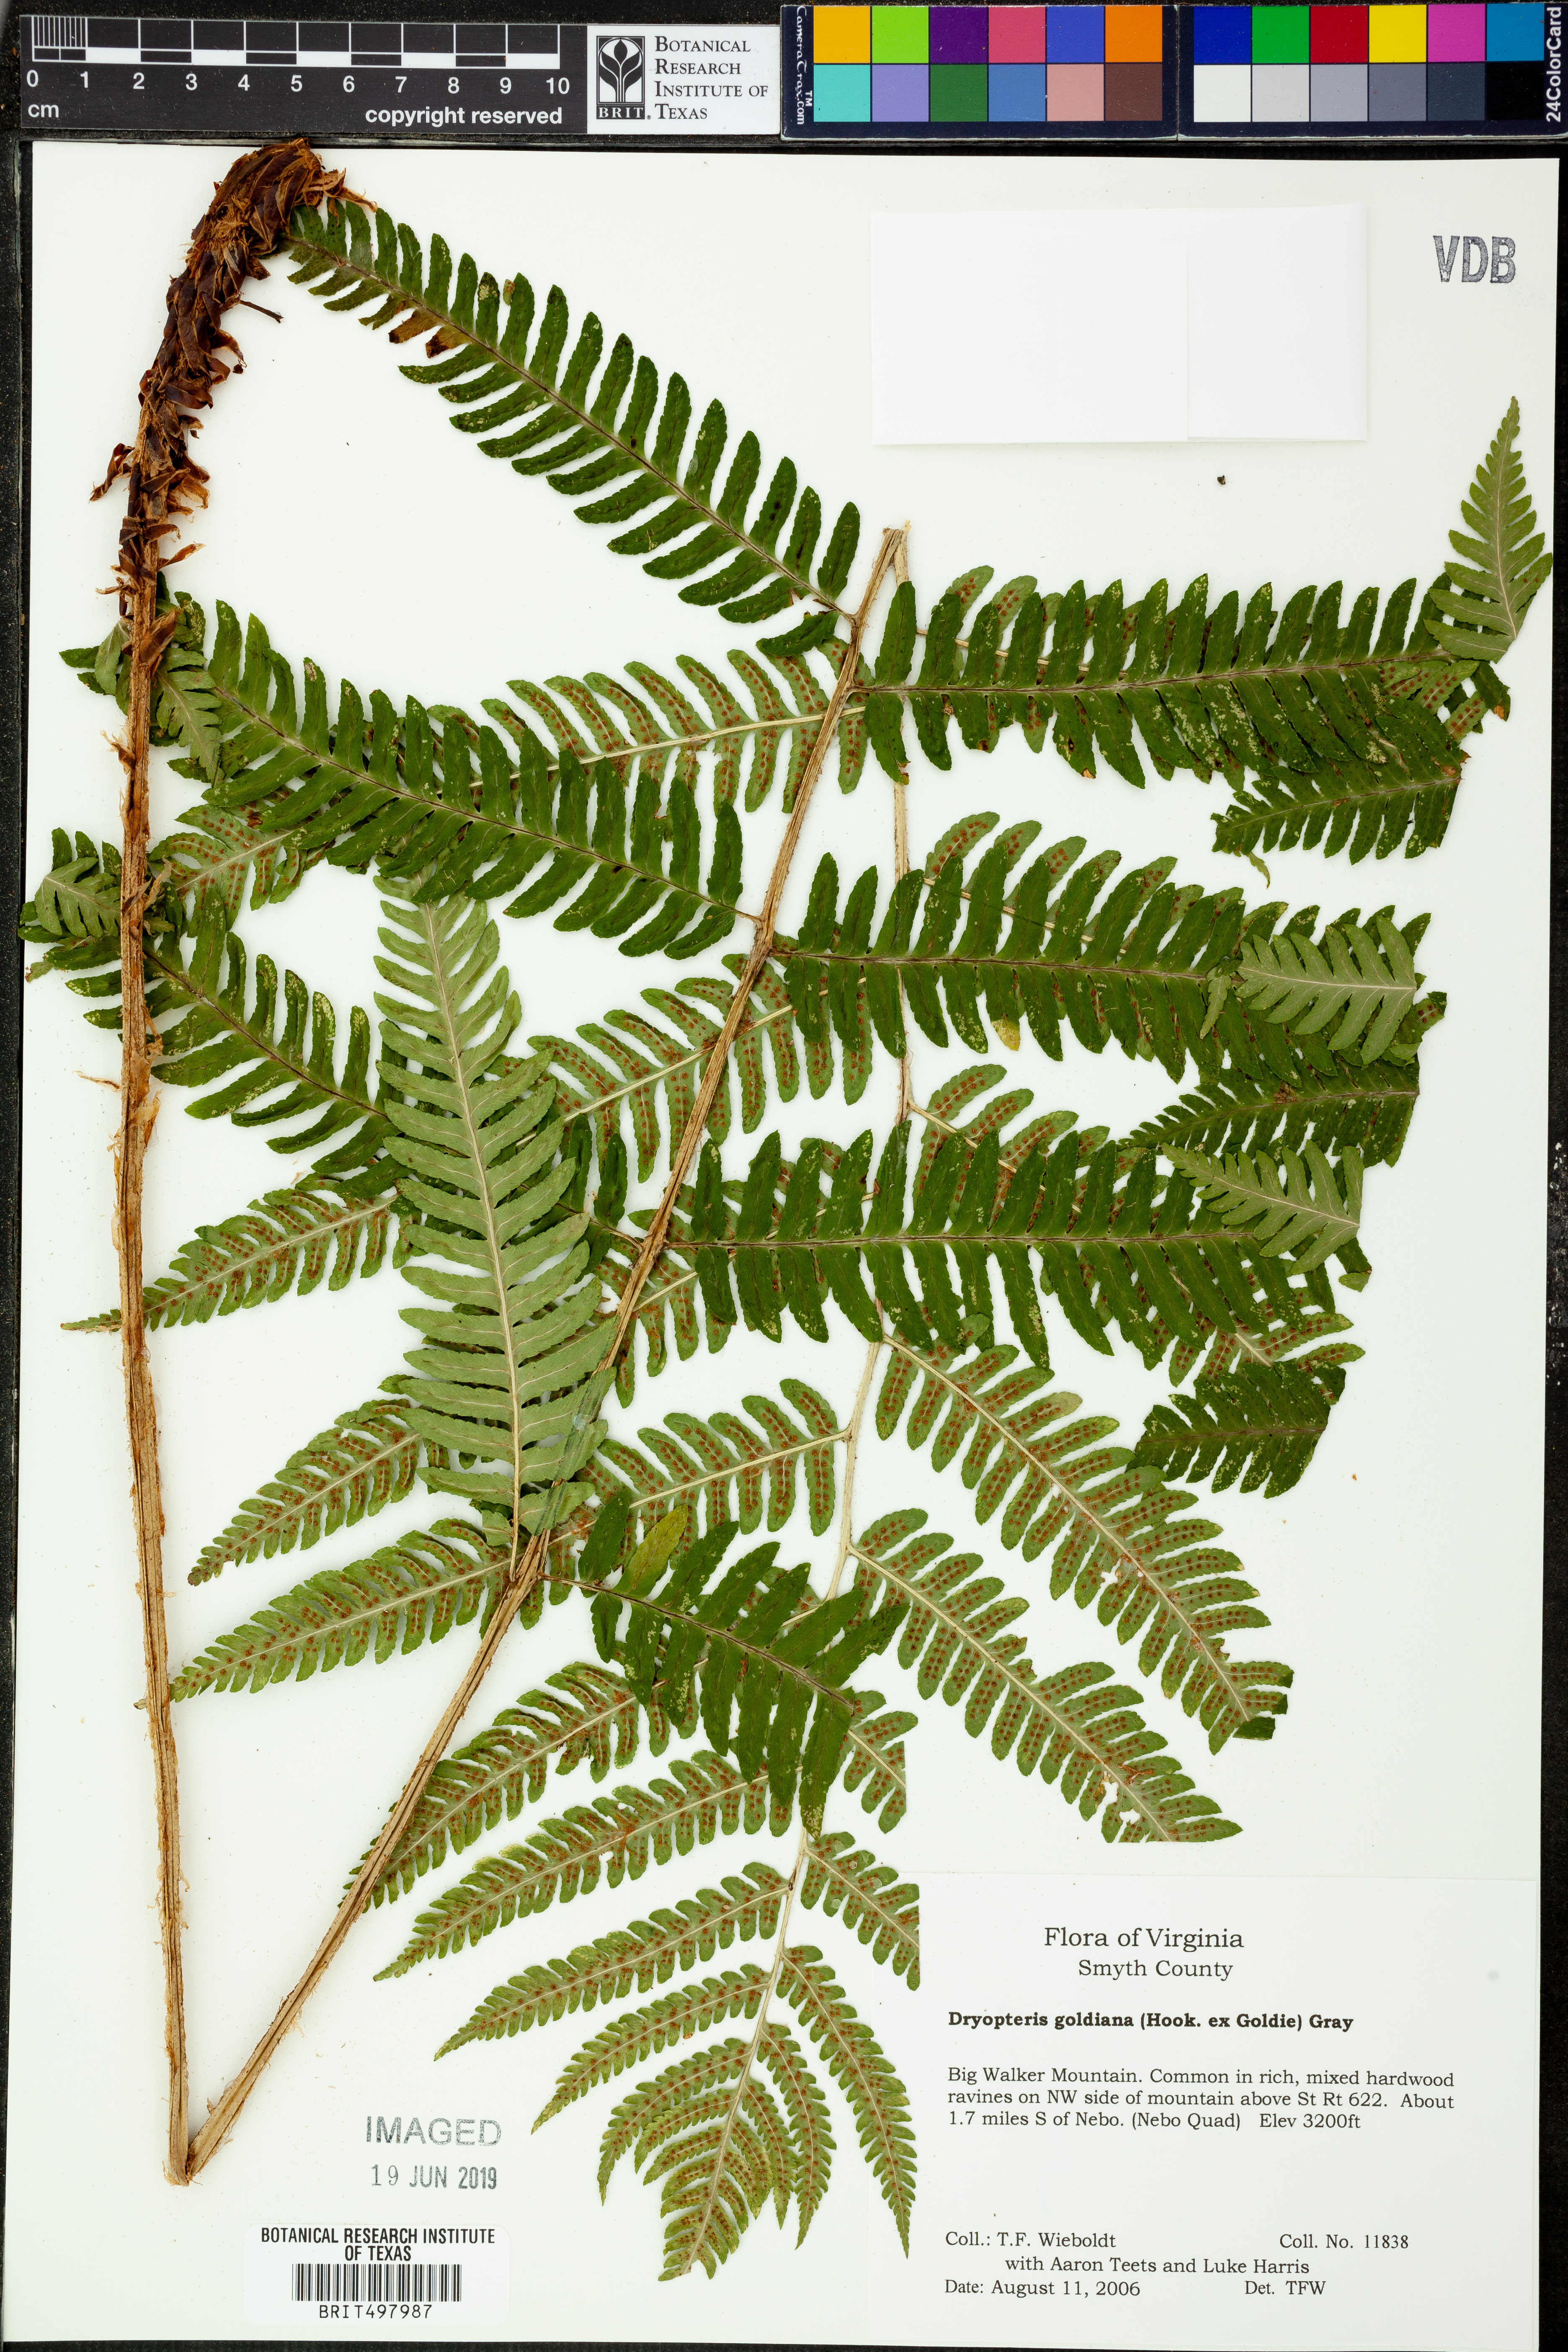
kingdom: Plantae
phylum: Tracheophyta
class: Polypodiopsida
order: Polypodiales
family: Dryopteridaceae
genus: Dryopteris
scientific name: Dryopteris goeldiana
